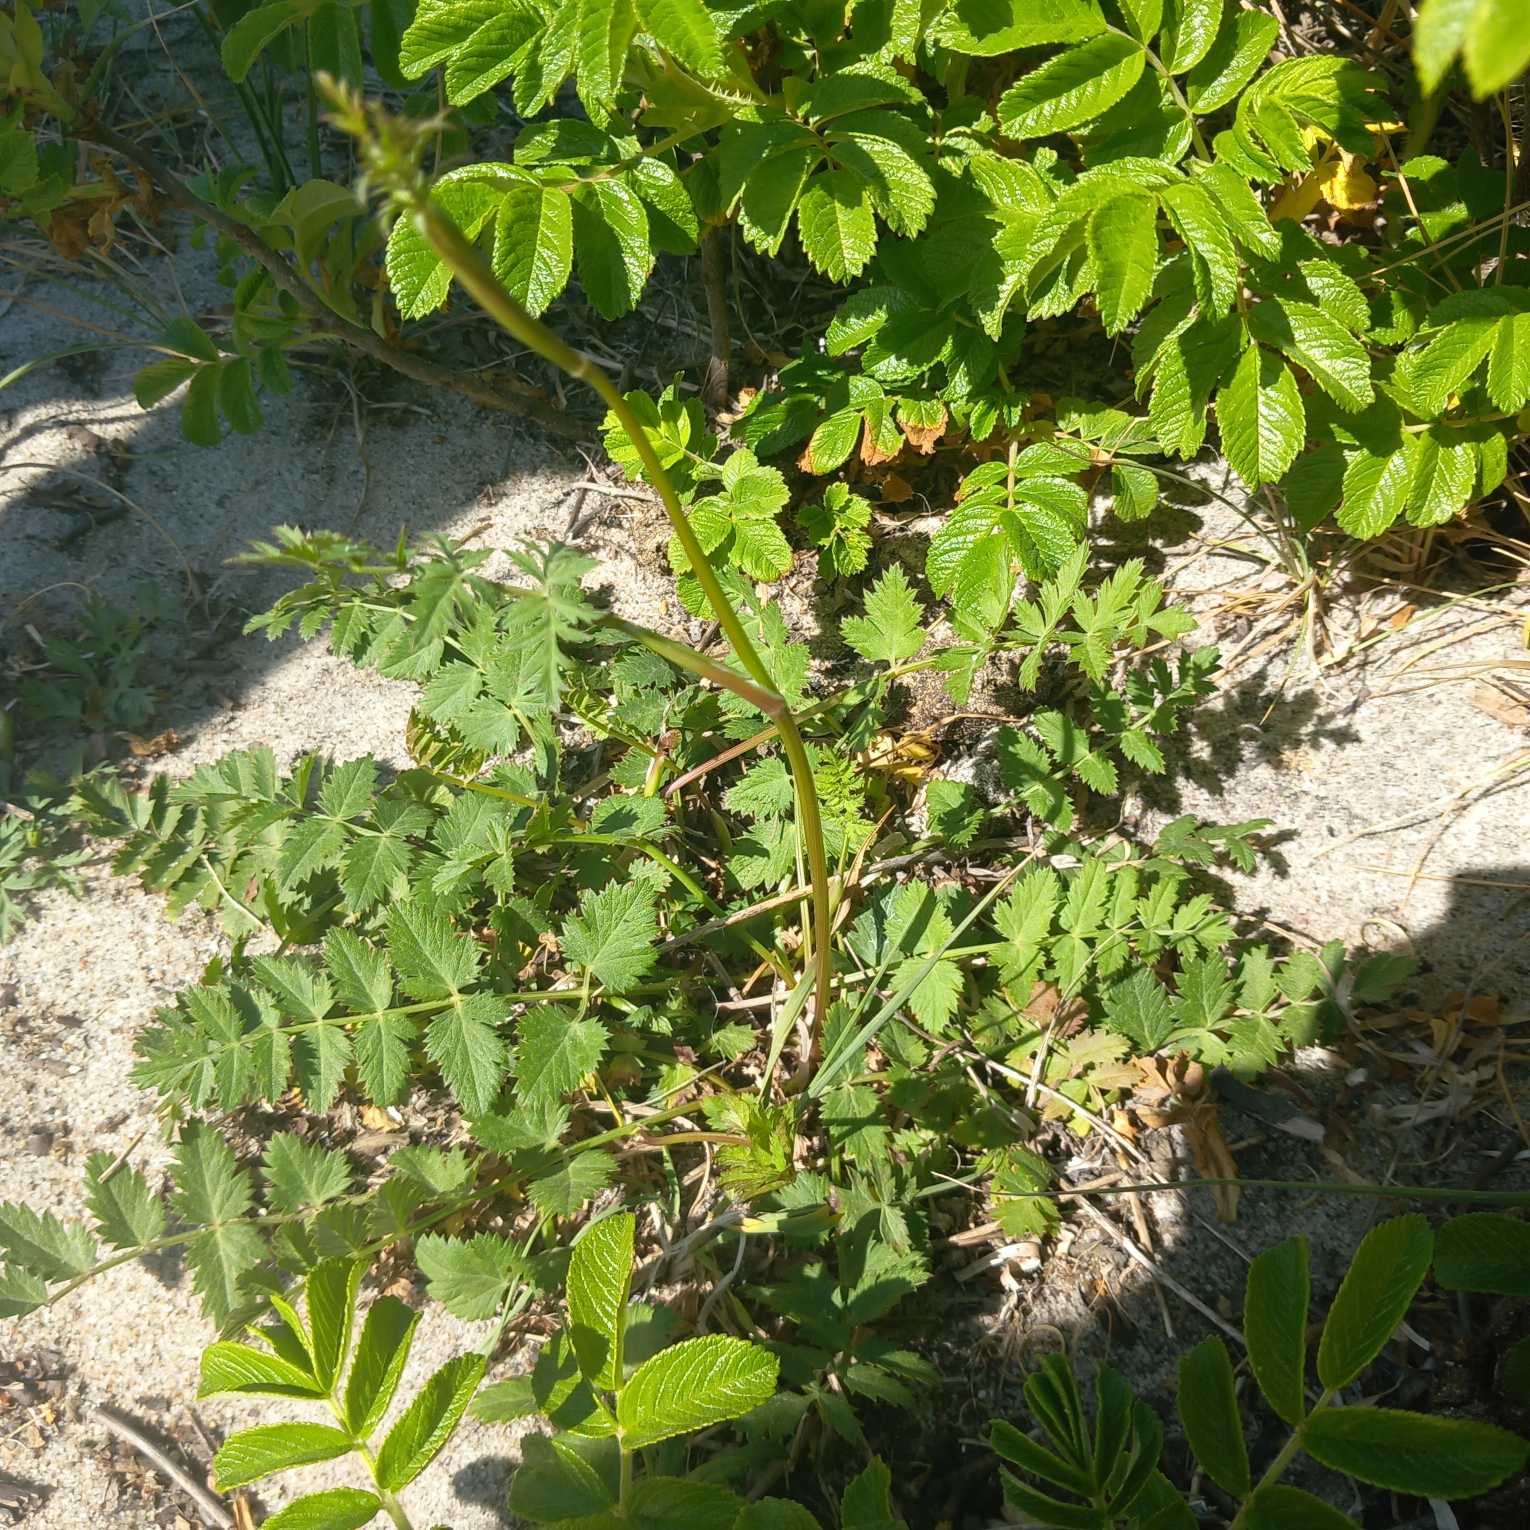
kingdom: Plantae
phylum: Tracheophyta
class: Magnoliopsida
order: Apiales
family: Apiaceae
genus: Pimpinella
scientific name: Pimpinella saxifraga
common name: Almindelig pimpinelle
